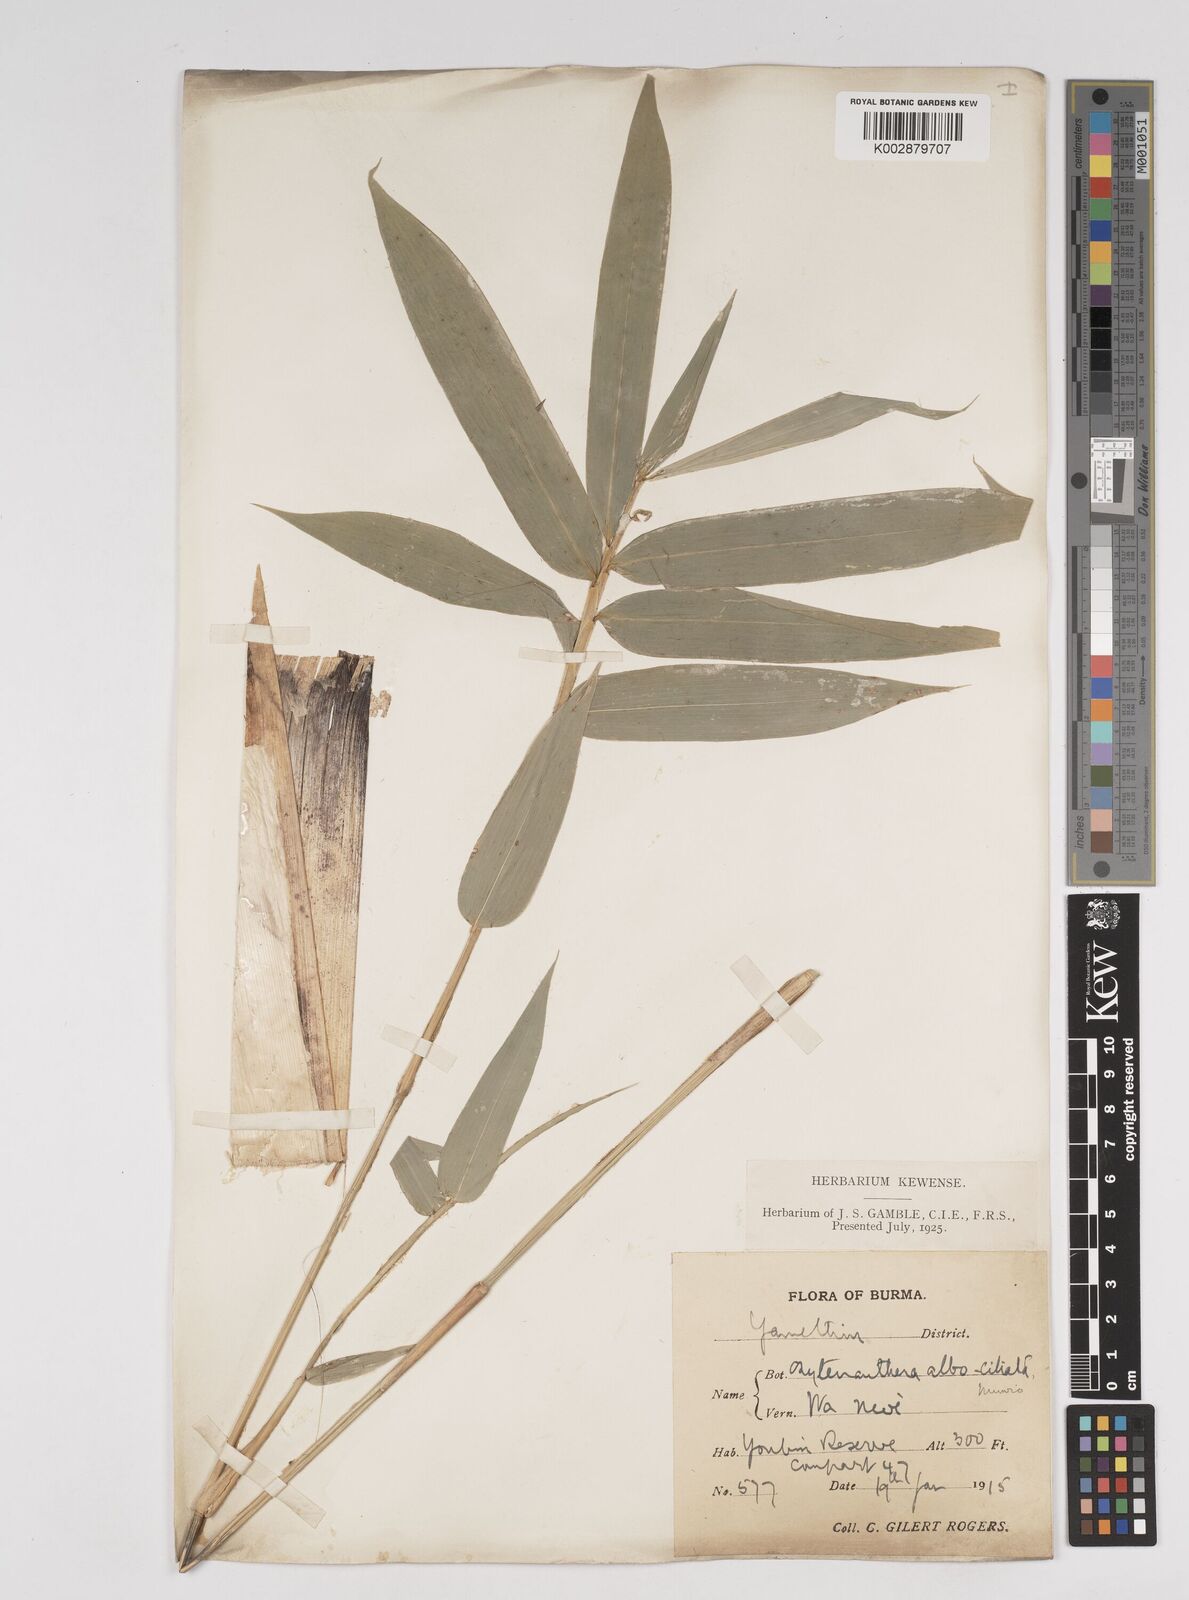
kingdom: Plantae
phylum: Tracheophyta
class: Liliopsida
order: Poales
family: Poaceae
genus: Gigantochloa
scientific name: Gigantochloa albociliata
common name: White-fringe gigantochloa
